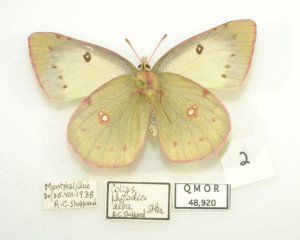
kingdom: Animalia
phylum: Arthropoda
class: Insecta
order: Lepidoptera
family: Pieridae
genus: Colias
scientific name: Colias philodice
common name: Clouded Sulphur
